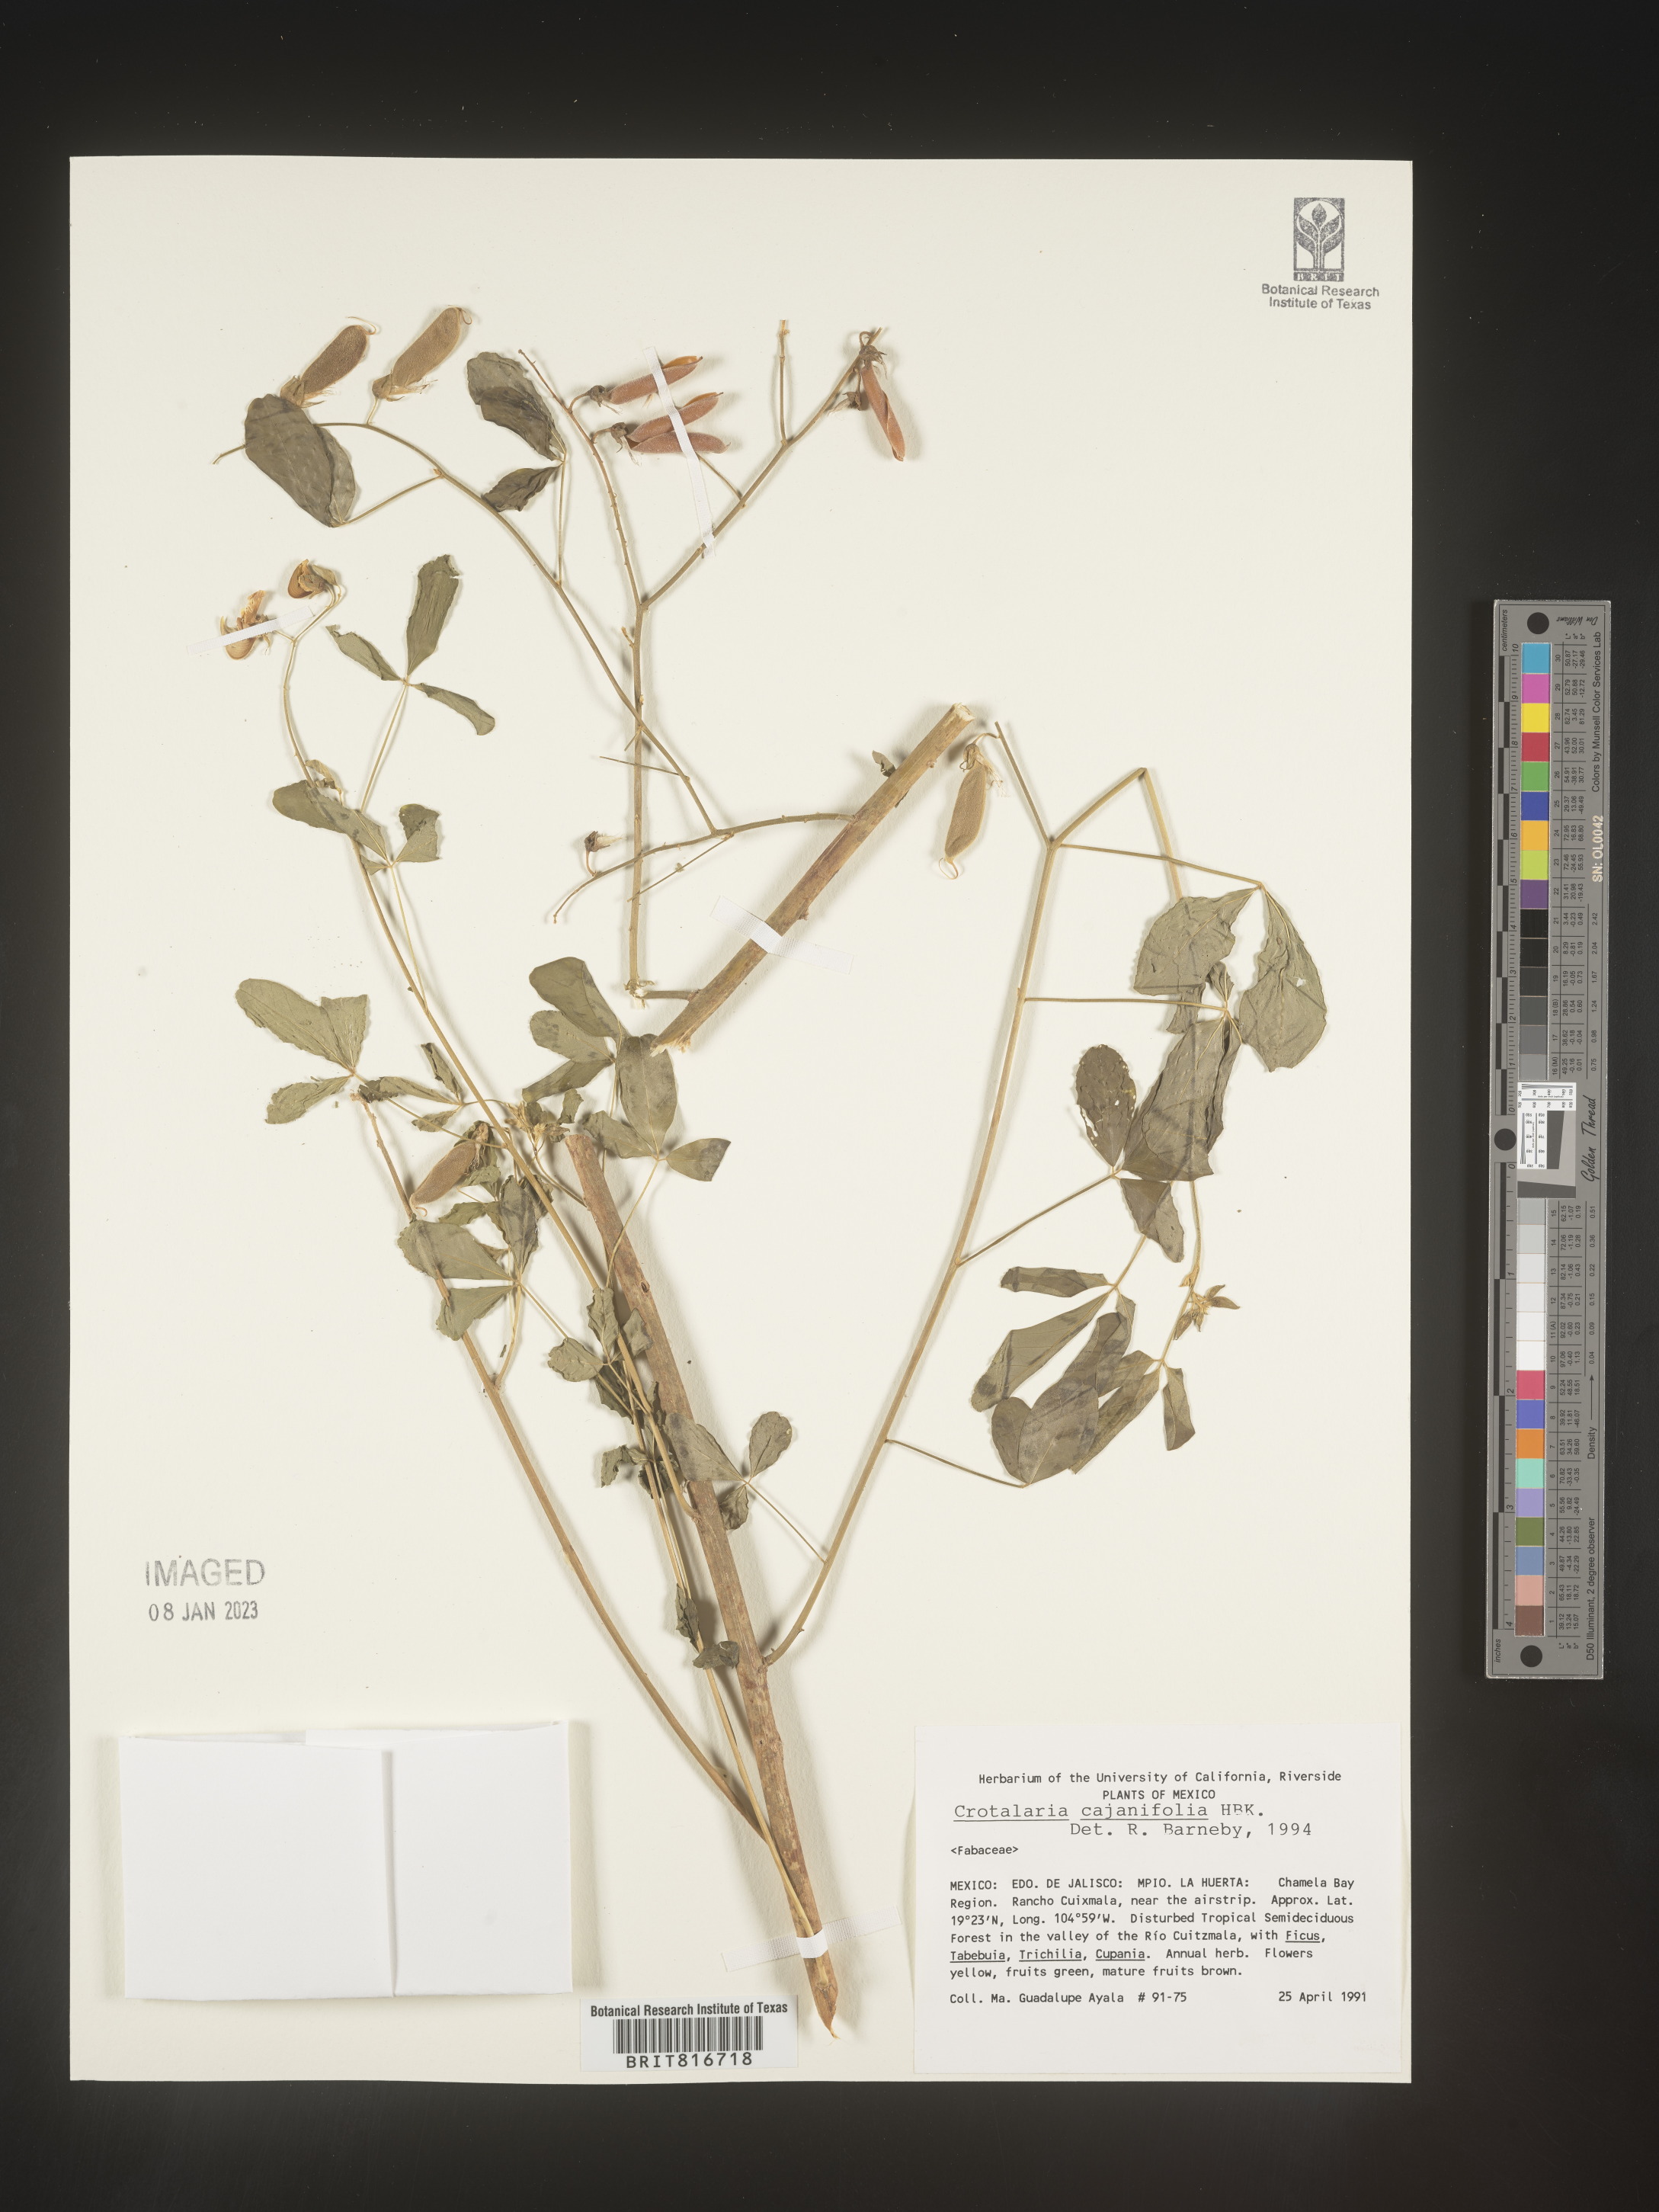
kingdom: Plantae
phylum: Tracheophyta
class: Magnoliopsida
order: Fabales
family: Fabaceae
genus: Crotalaria
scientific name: Crotalaria
